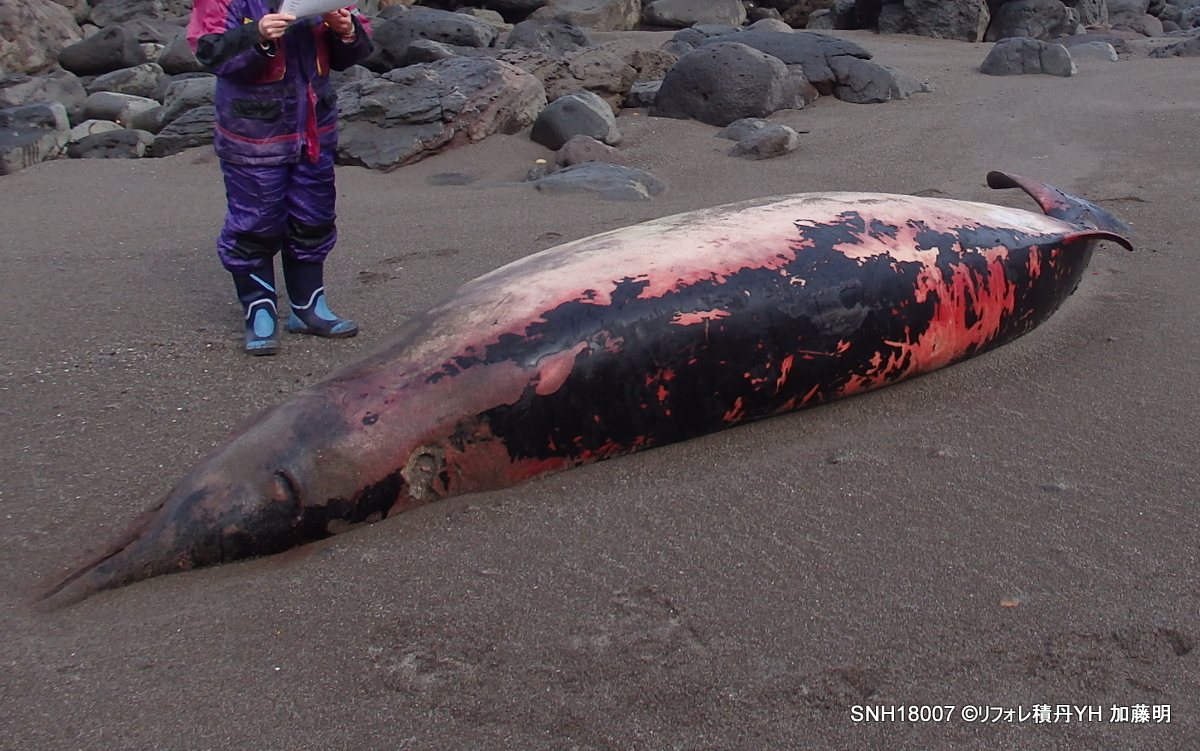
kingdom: Animalia
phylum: Chordata
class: Mammalia
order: Cetacea
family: Hyperoodontidae
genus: Mesoplodon
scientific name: Mesoplodon stejnegeri
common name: Stejneger's beaked whale
